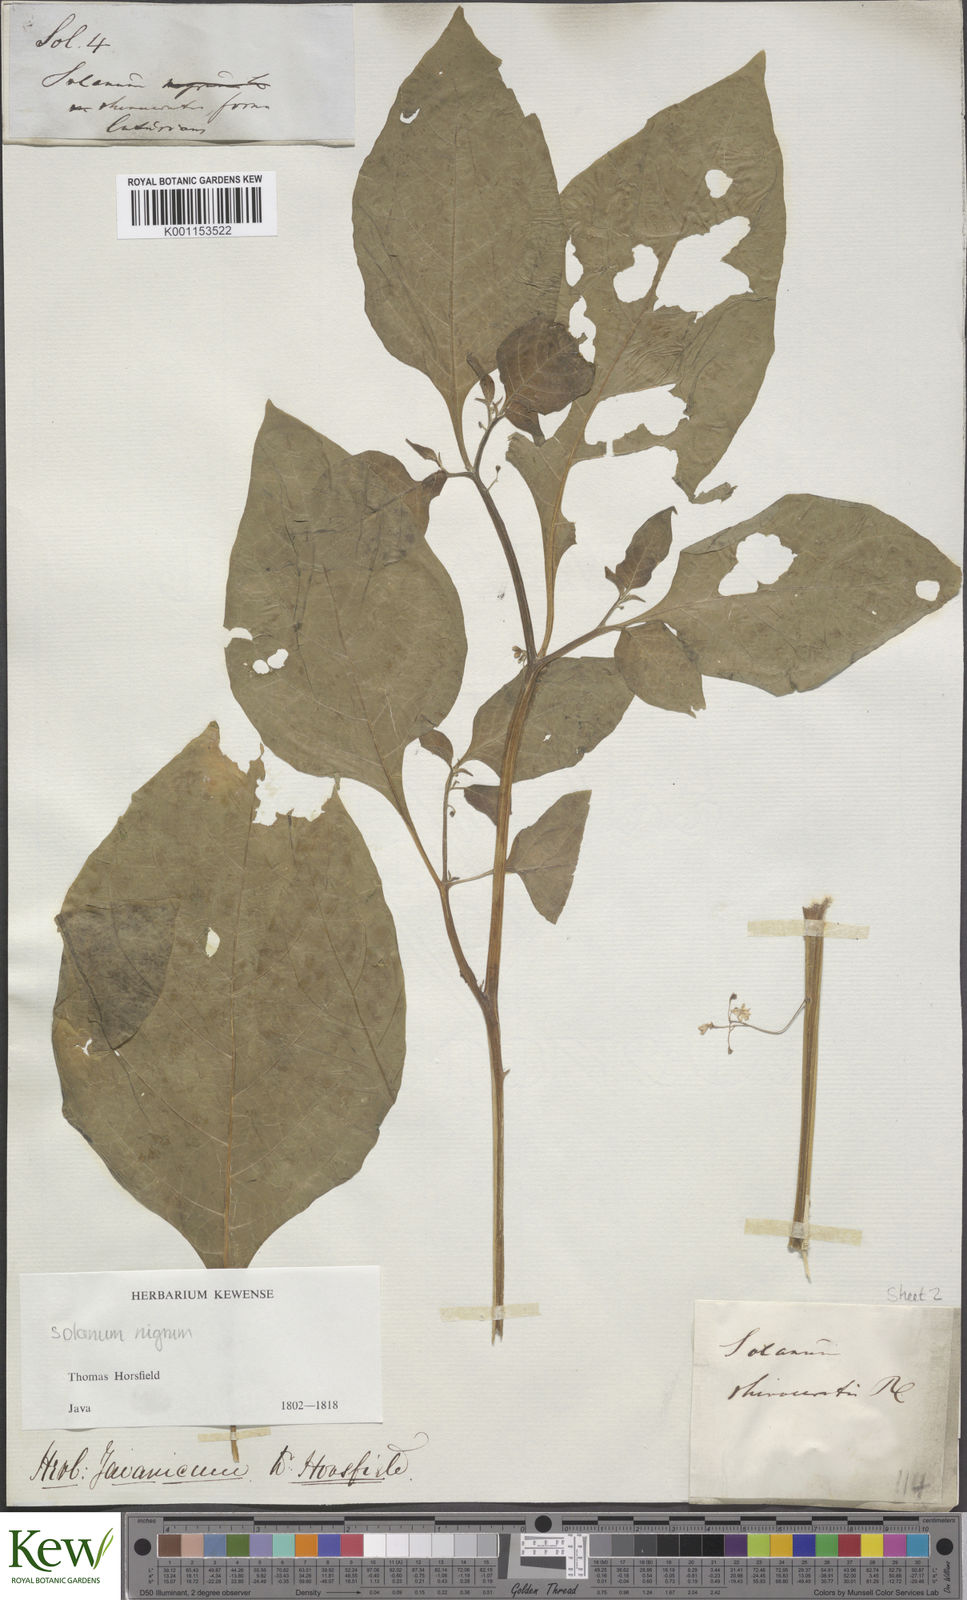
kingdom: Plantae
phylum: Tracheophyta
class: Magnoliopsida
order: Solanales
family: Solanaceae
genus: Solanum
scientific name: Solanum nigrum
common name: Black nightshade
